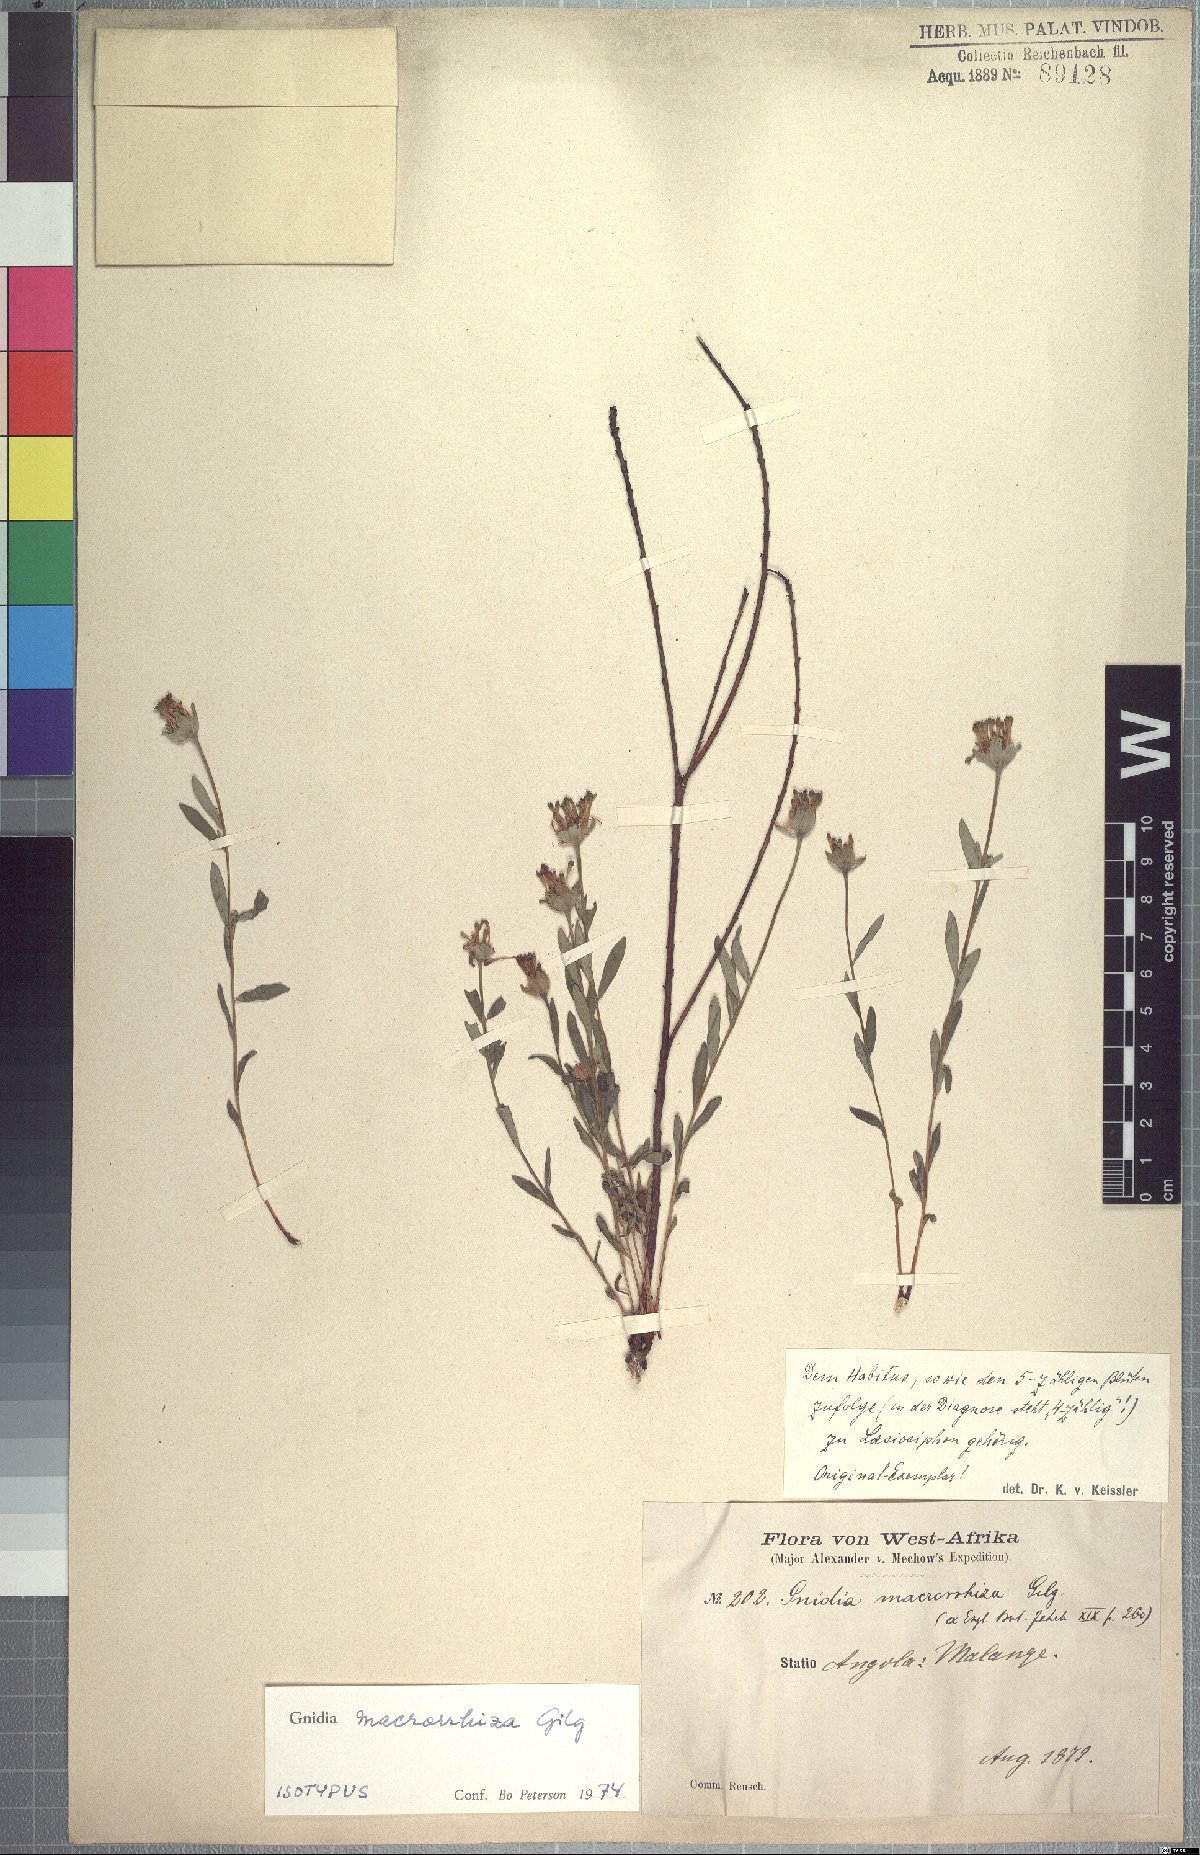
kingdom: Plantae
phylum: Tracheophyta
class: Magnoliopsida
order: Malvales
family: Thymelaeaceae
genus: Gnidia
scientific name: Gnidia involucrata
